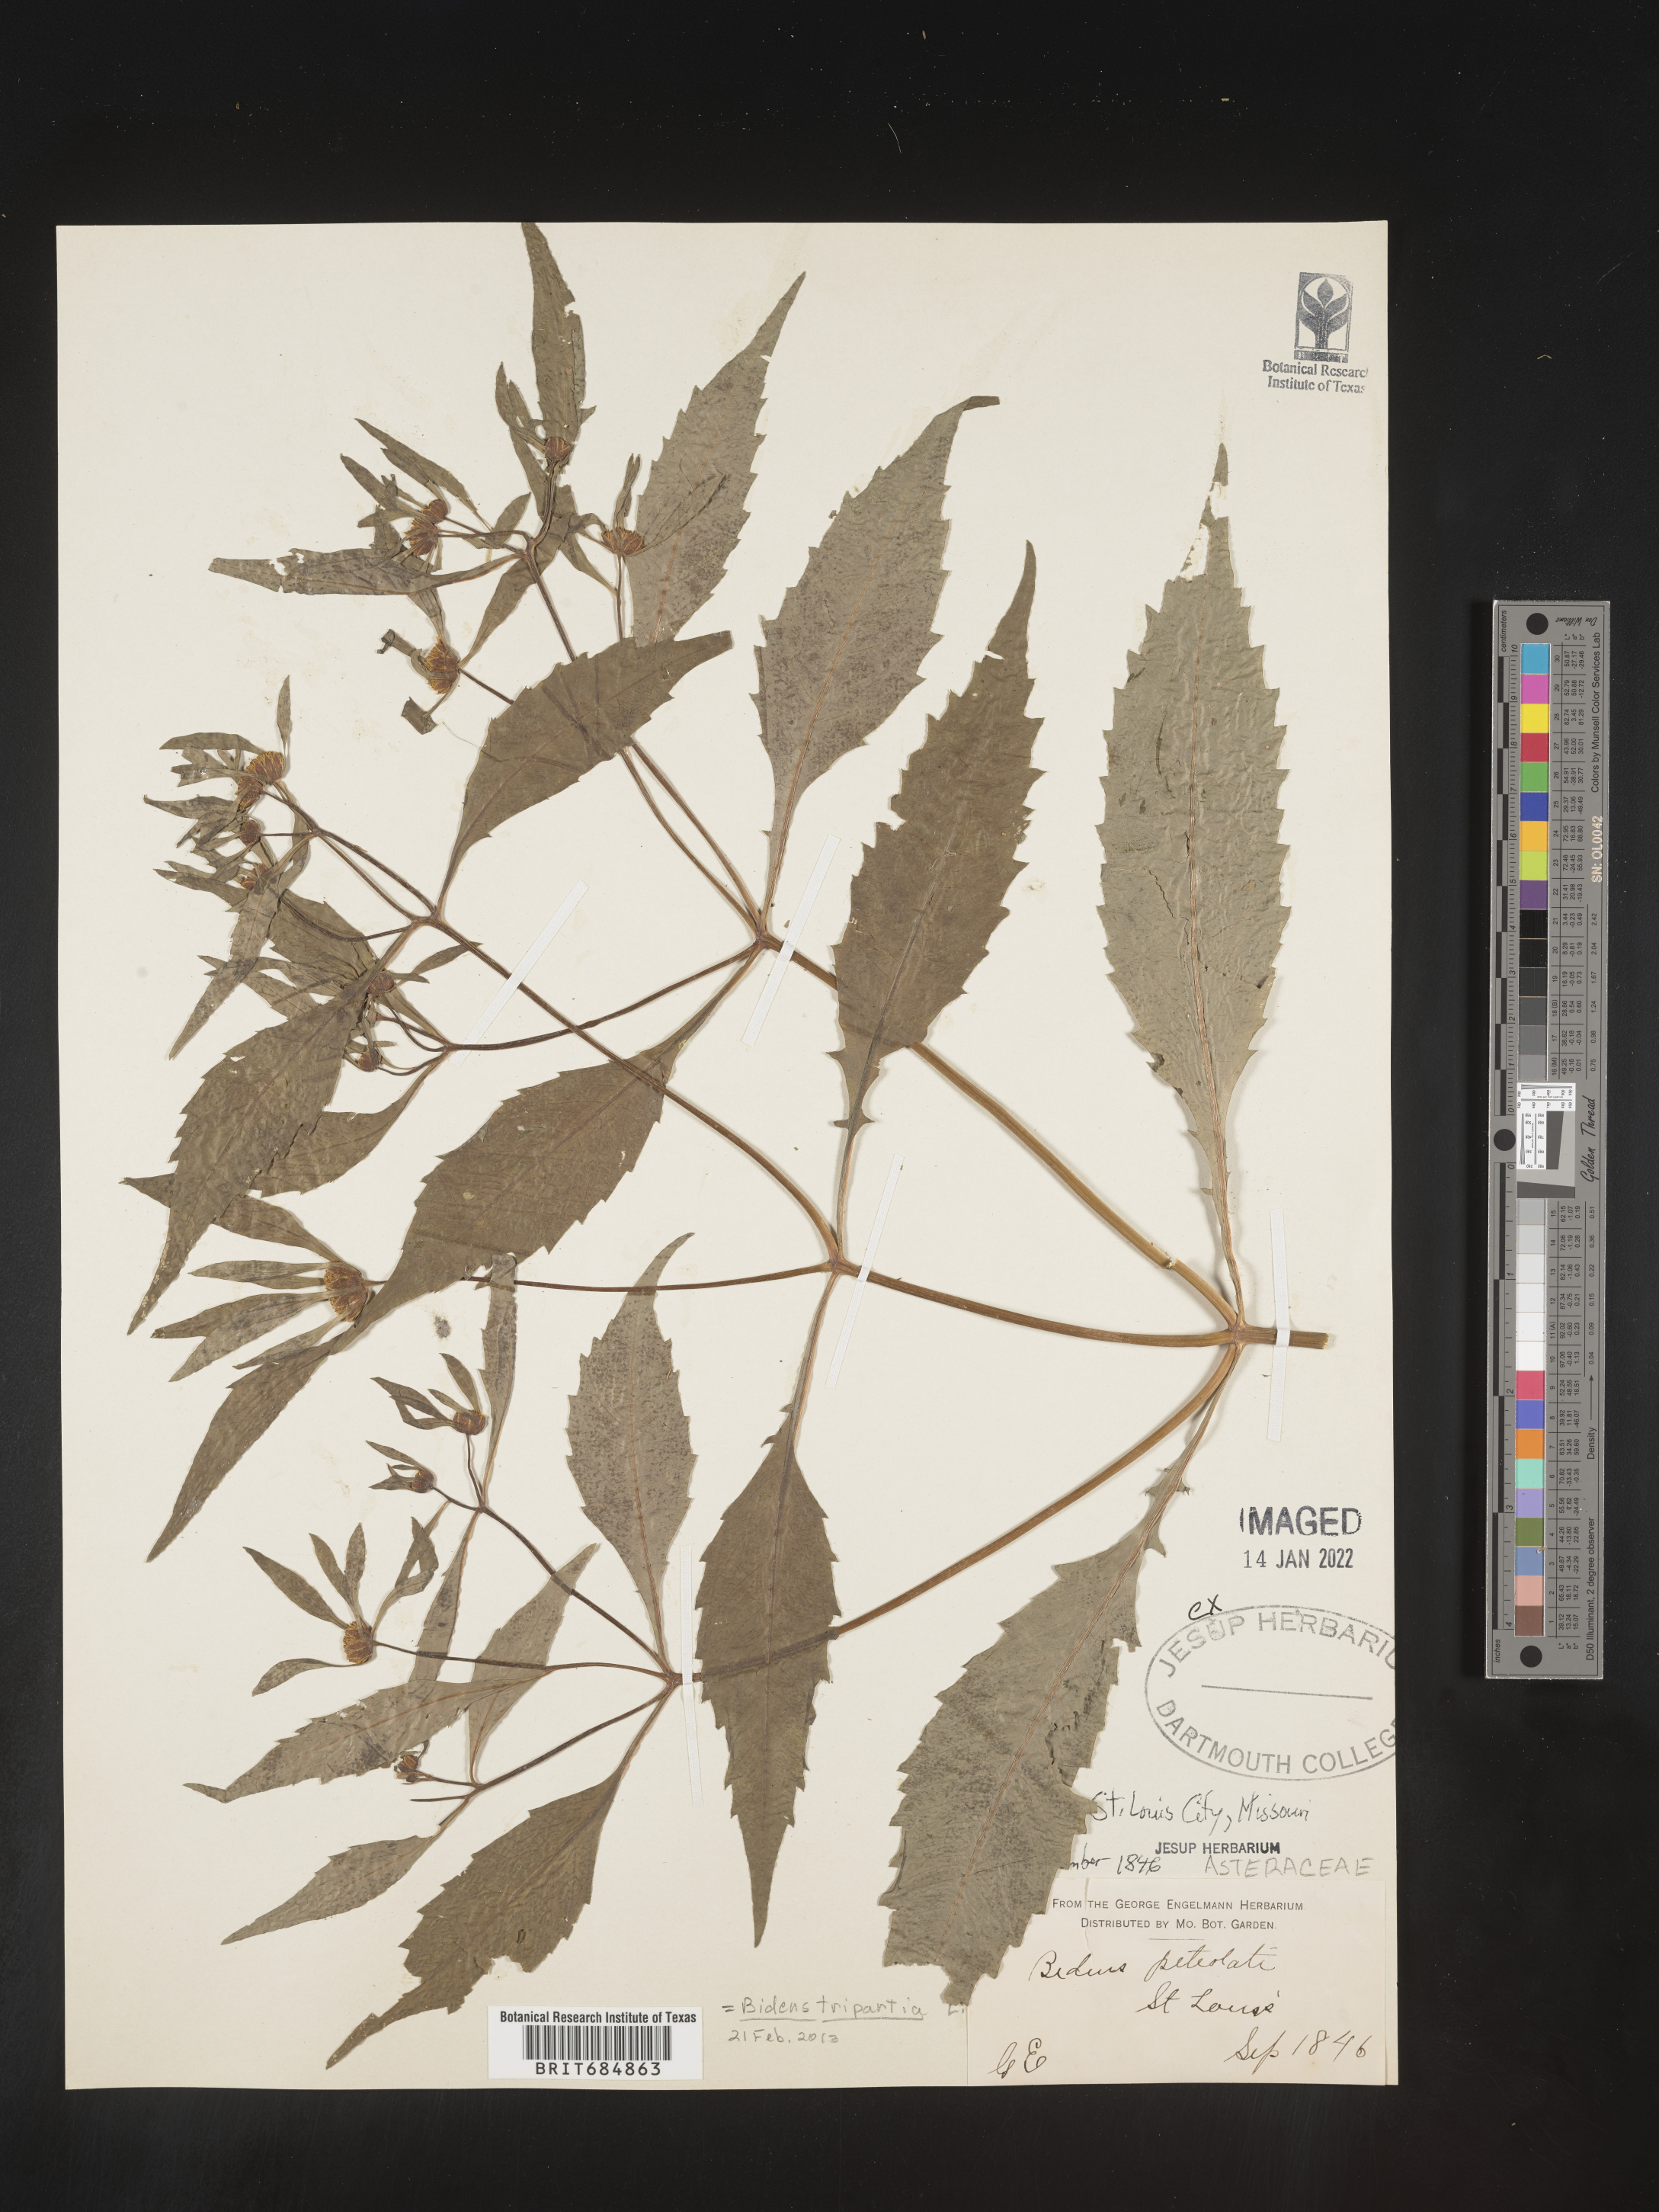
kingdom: Plantae
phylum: Tracheophyta
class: Magnoliopsida
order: Asterales
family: Asteraceae
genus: Bidens
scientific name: Bidens tripartita
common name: Trifid bur-marigold
